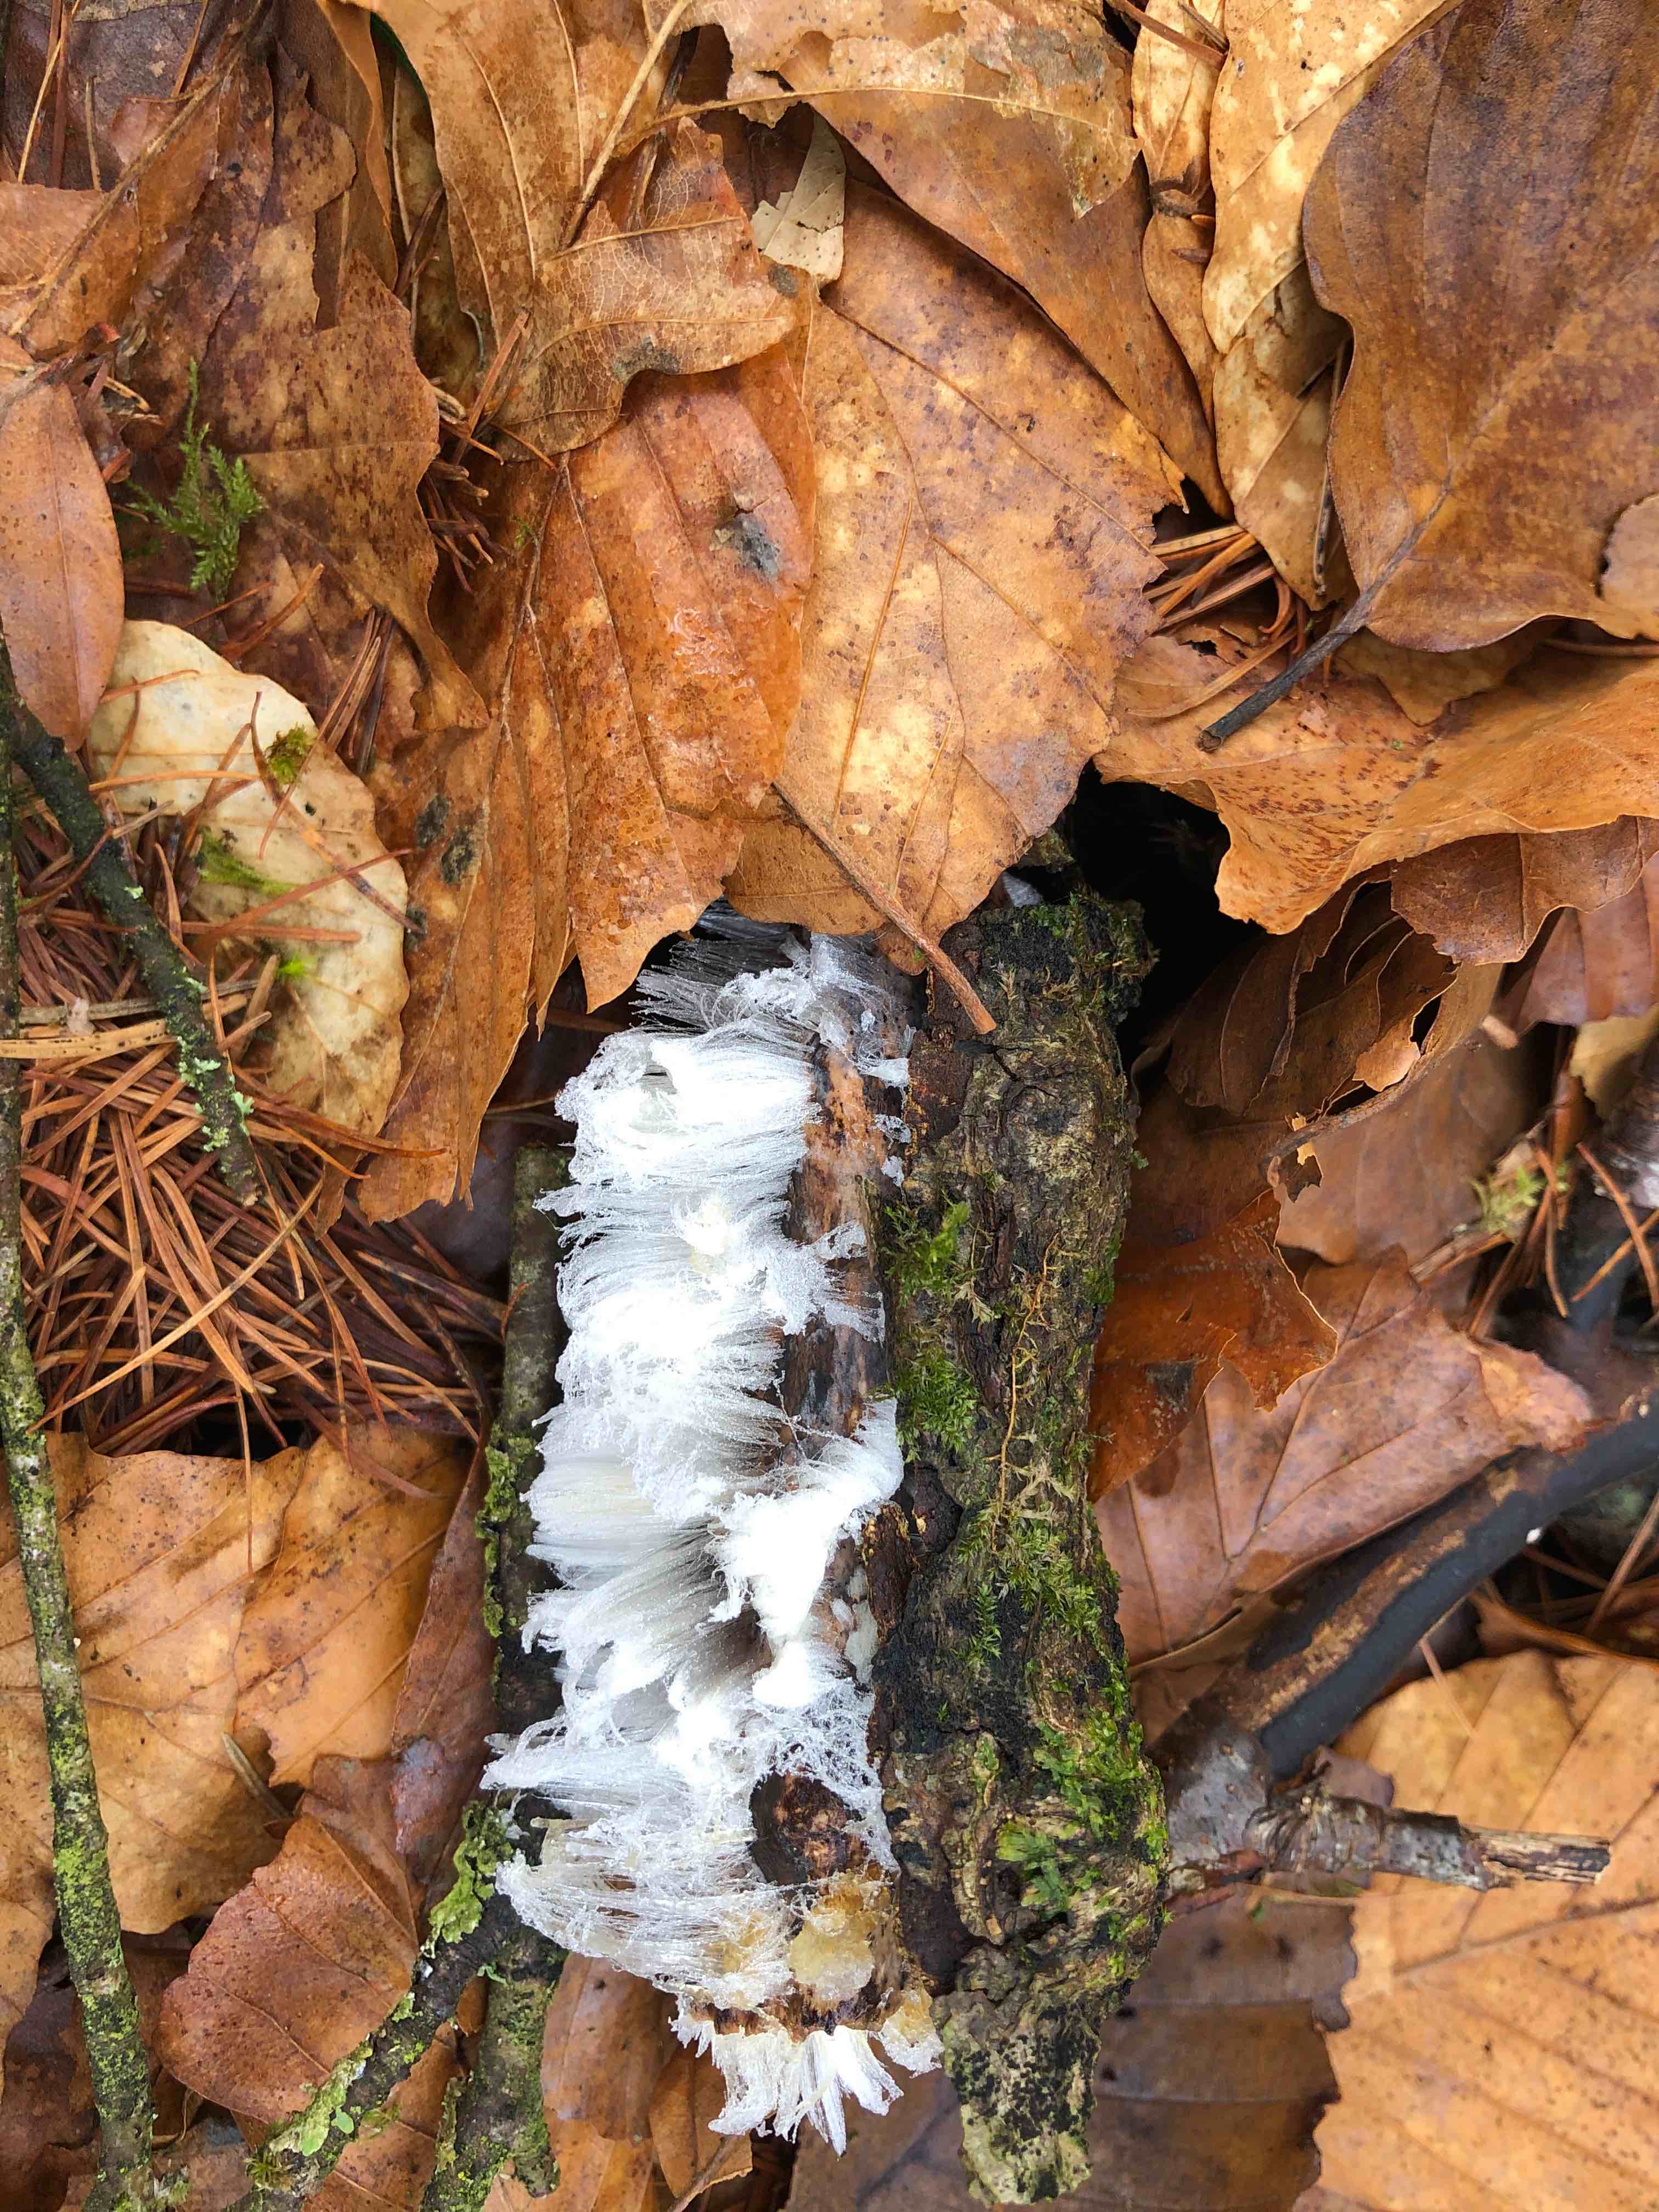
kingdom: Fungi
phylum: Basidiomycota
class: Tremellomycetes
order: Tremellales
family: Exidiaceae
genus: Exidiopsis
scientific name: Exidiopsis effusa
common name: smuk bævrehinde
